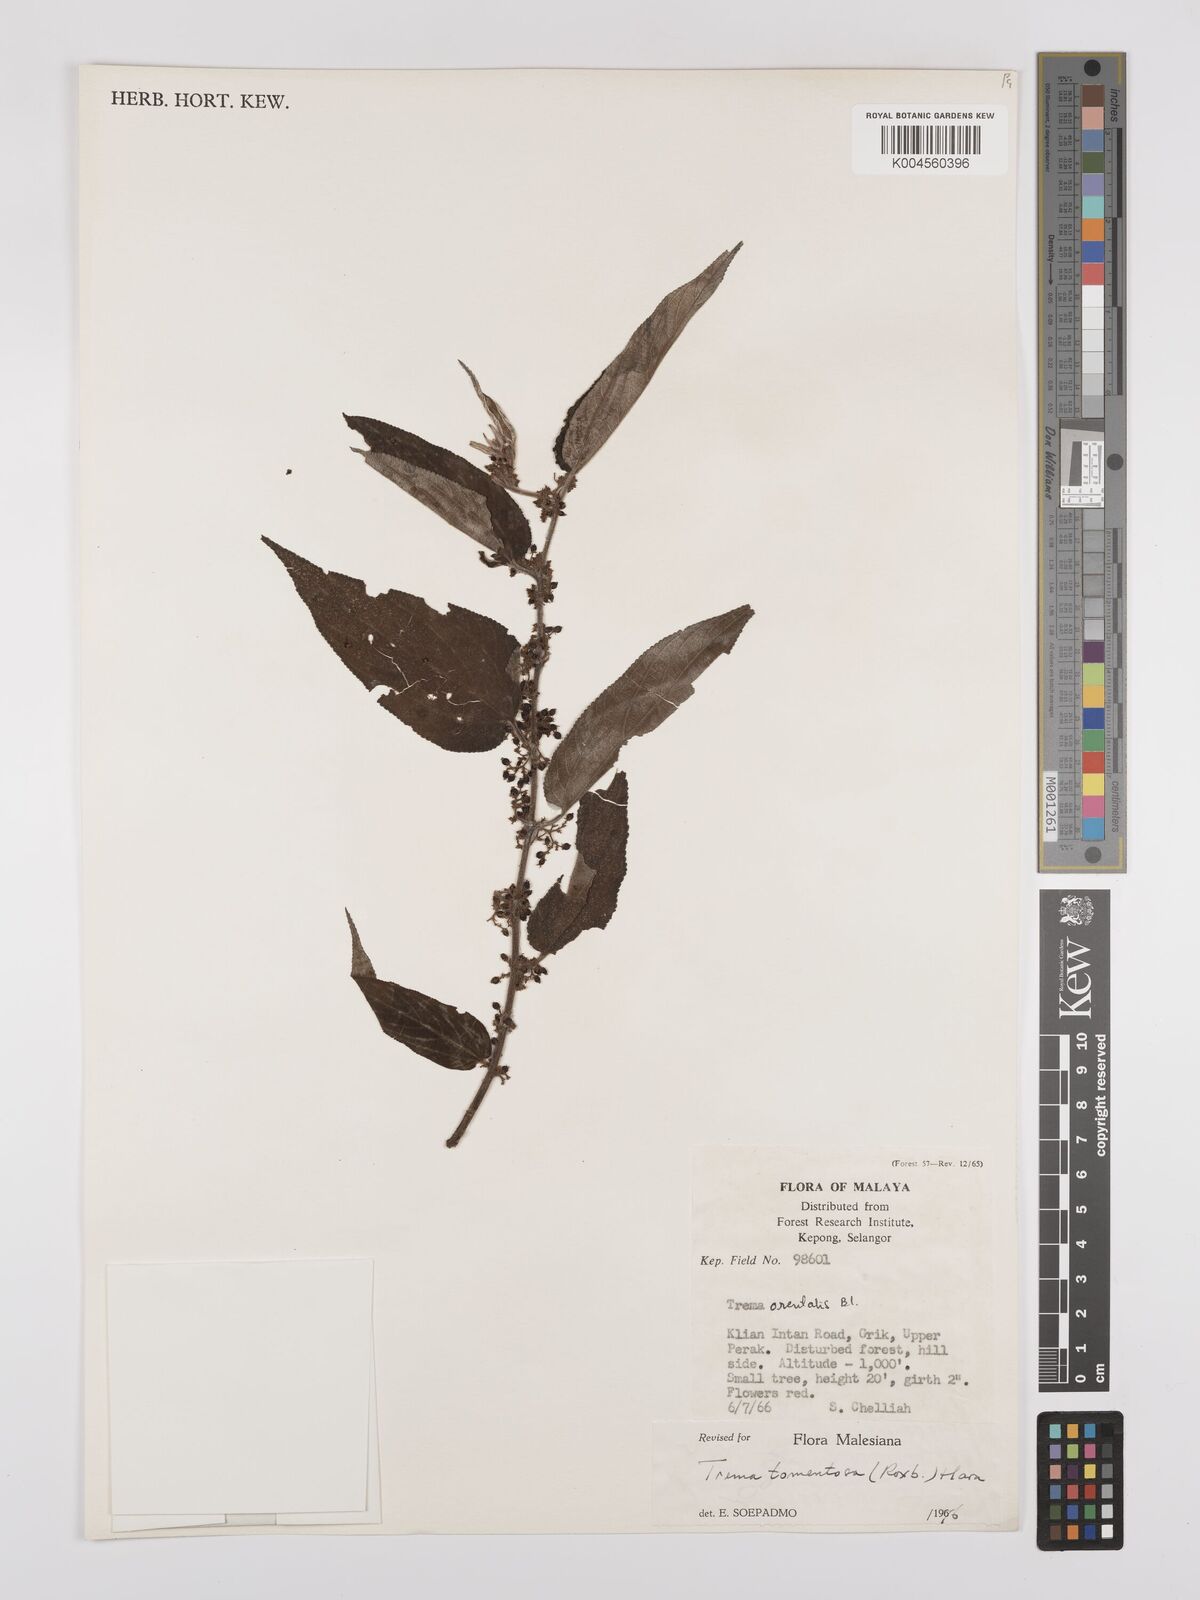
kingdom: Plantae
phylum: Tracheophyta
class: Magnoliopsida
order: Rosales
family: Cannabaceae
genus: Trema
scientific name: Trema tomentosum
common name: Peach-leaf-poisonbush
